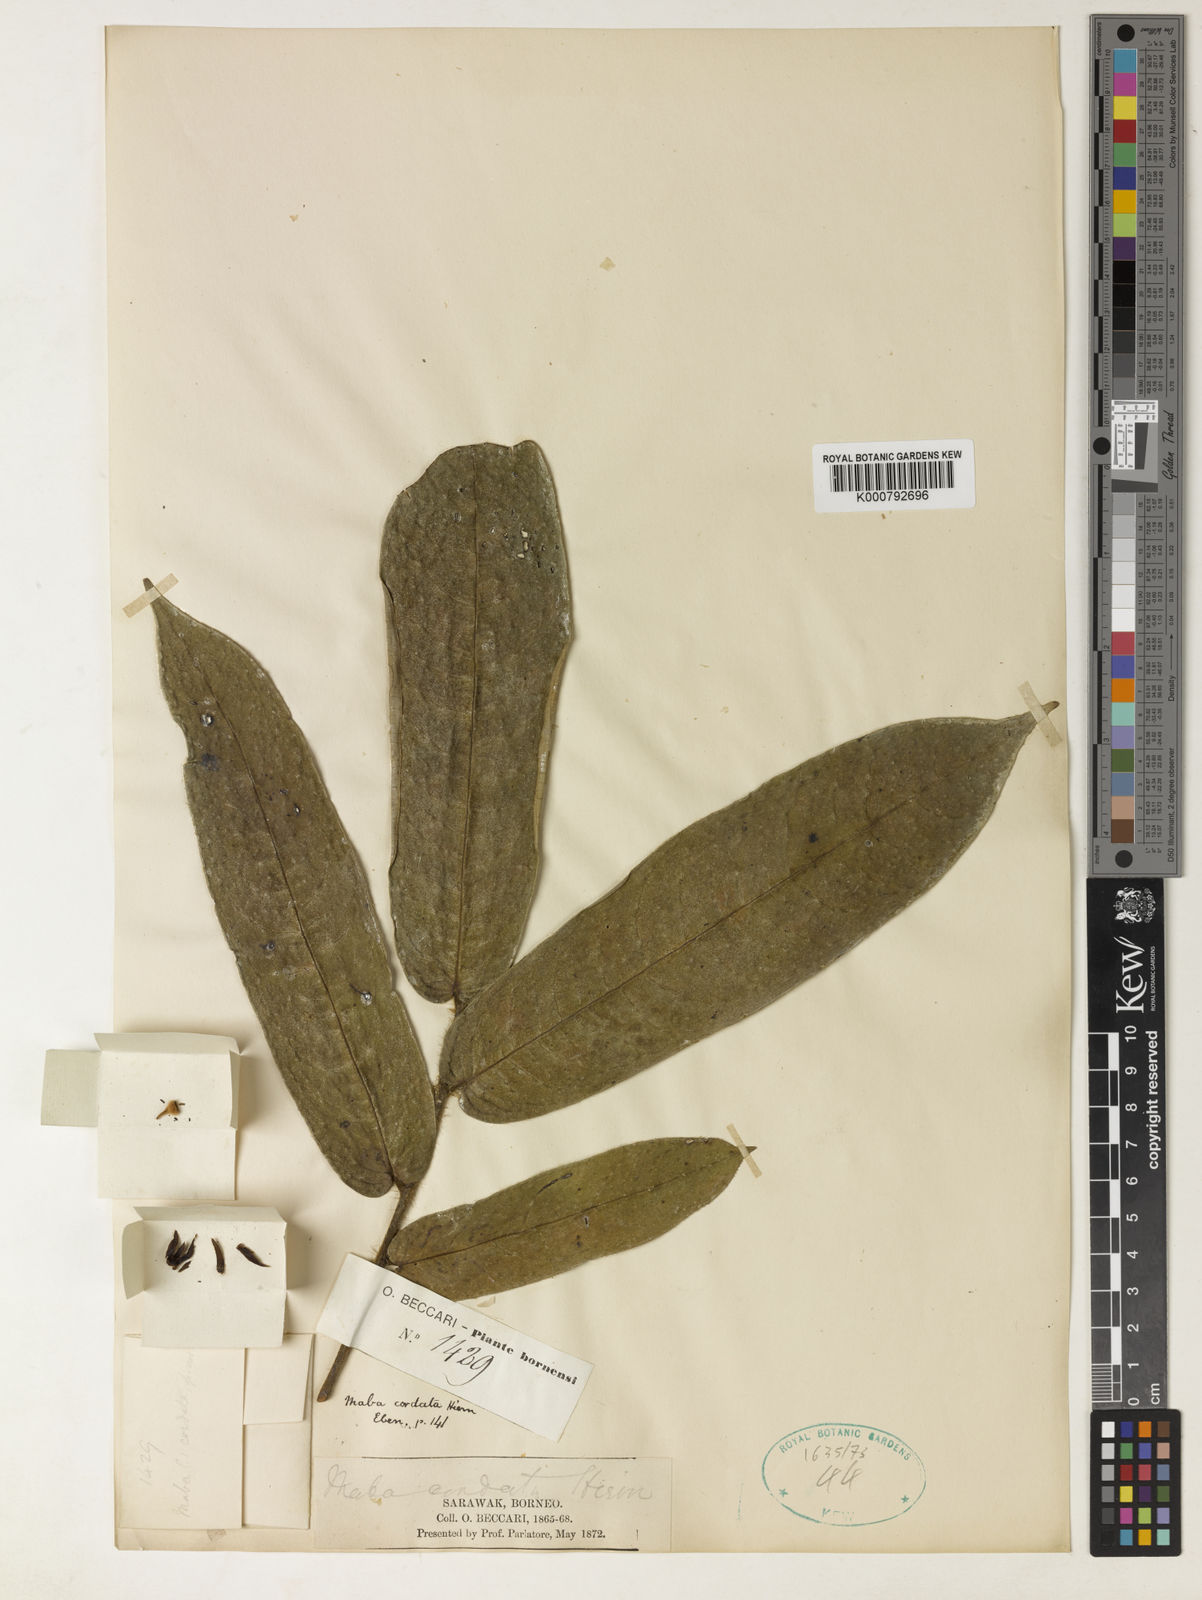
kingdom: Plantae
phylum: Tracheophyta
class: Magnoliopsida
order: Ericales
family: Ebenaceae
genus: Diospyros
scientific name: Diospyros cordata
